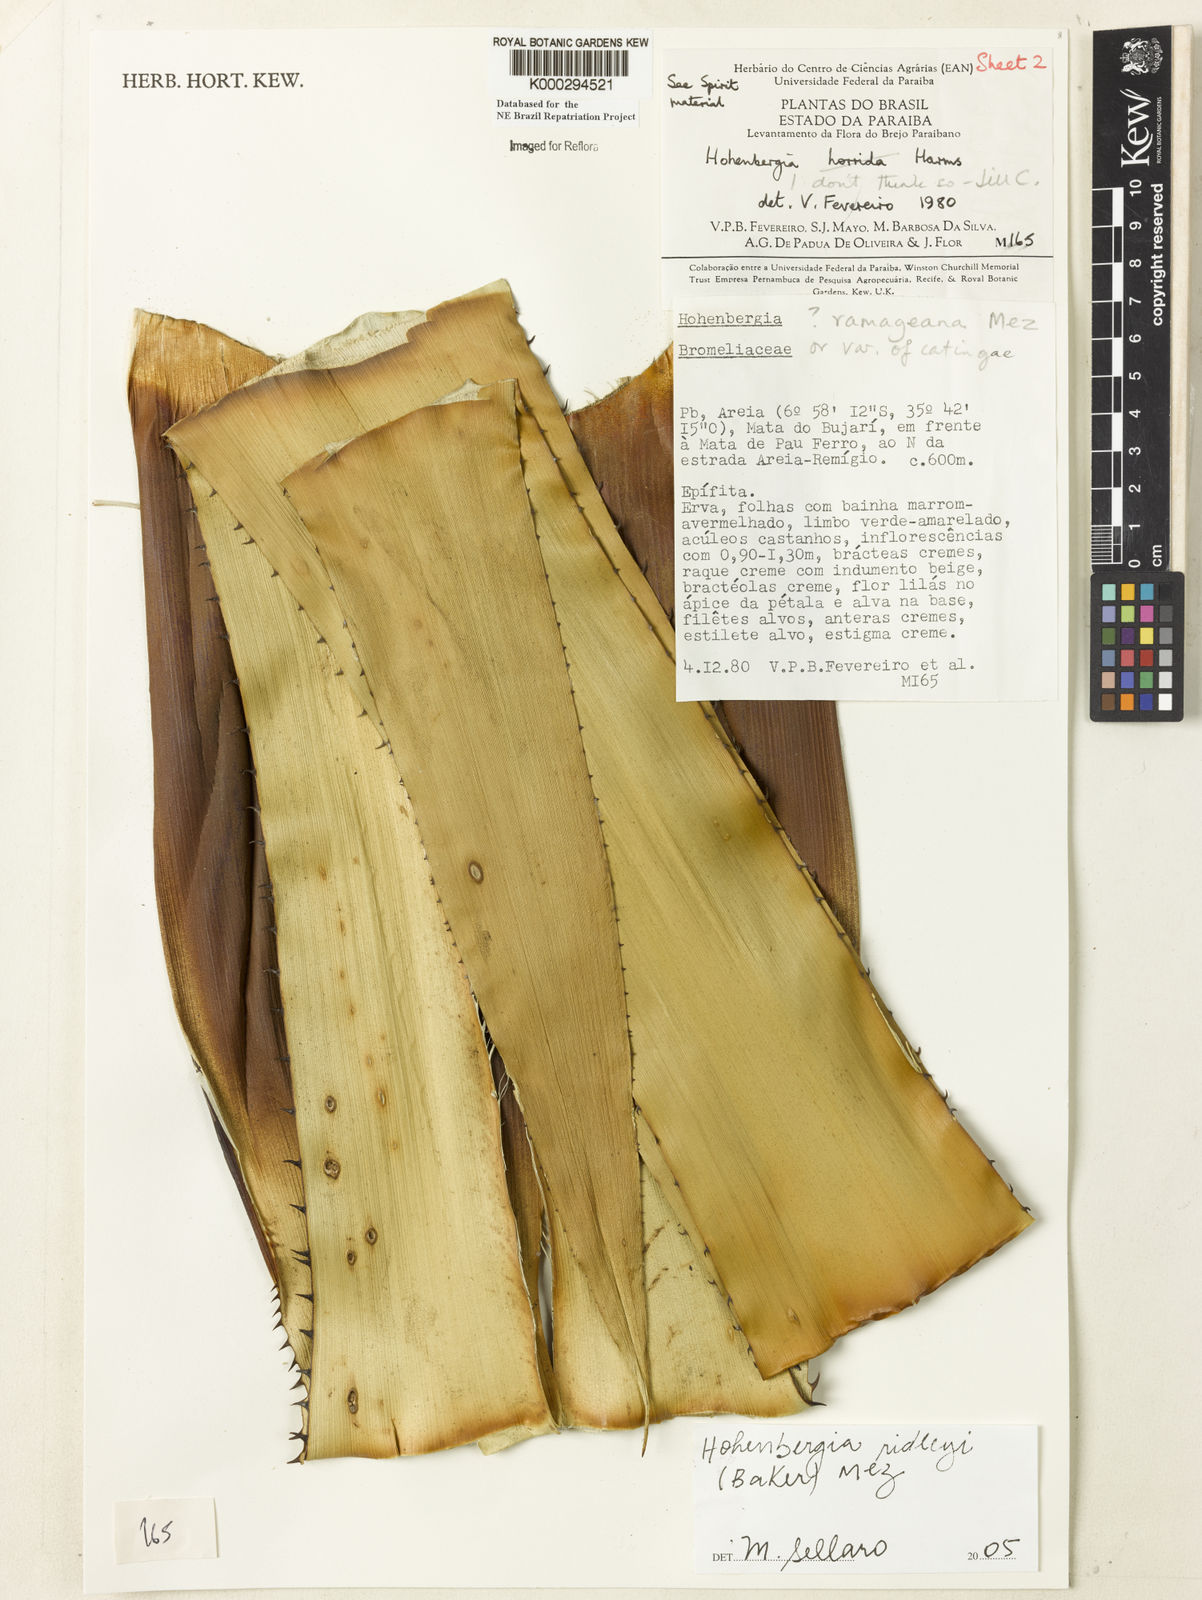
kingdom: Plantae
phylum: Tracheophyta
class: Liliopsida
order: Poales
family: Bromeliaceae
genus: Hohenbergia
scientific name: Hohenbergia ridleyi
